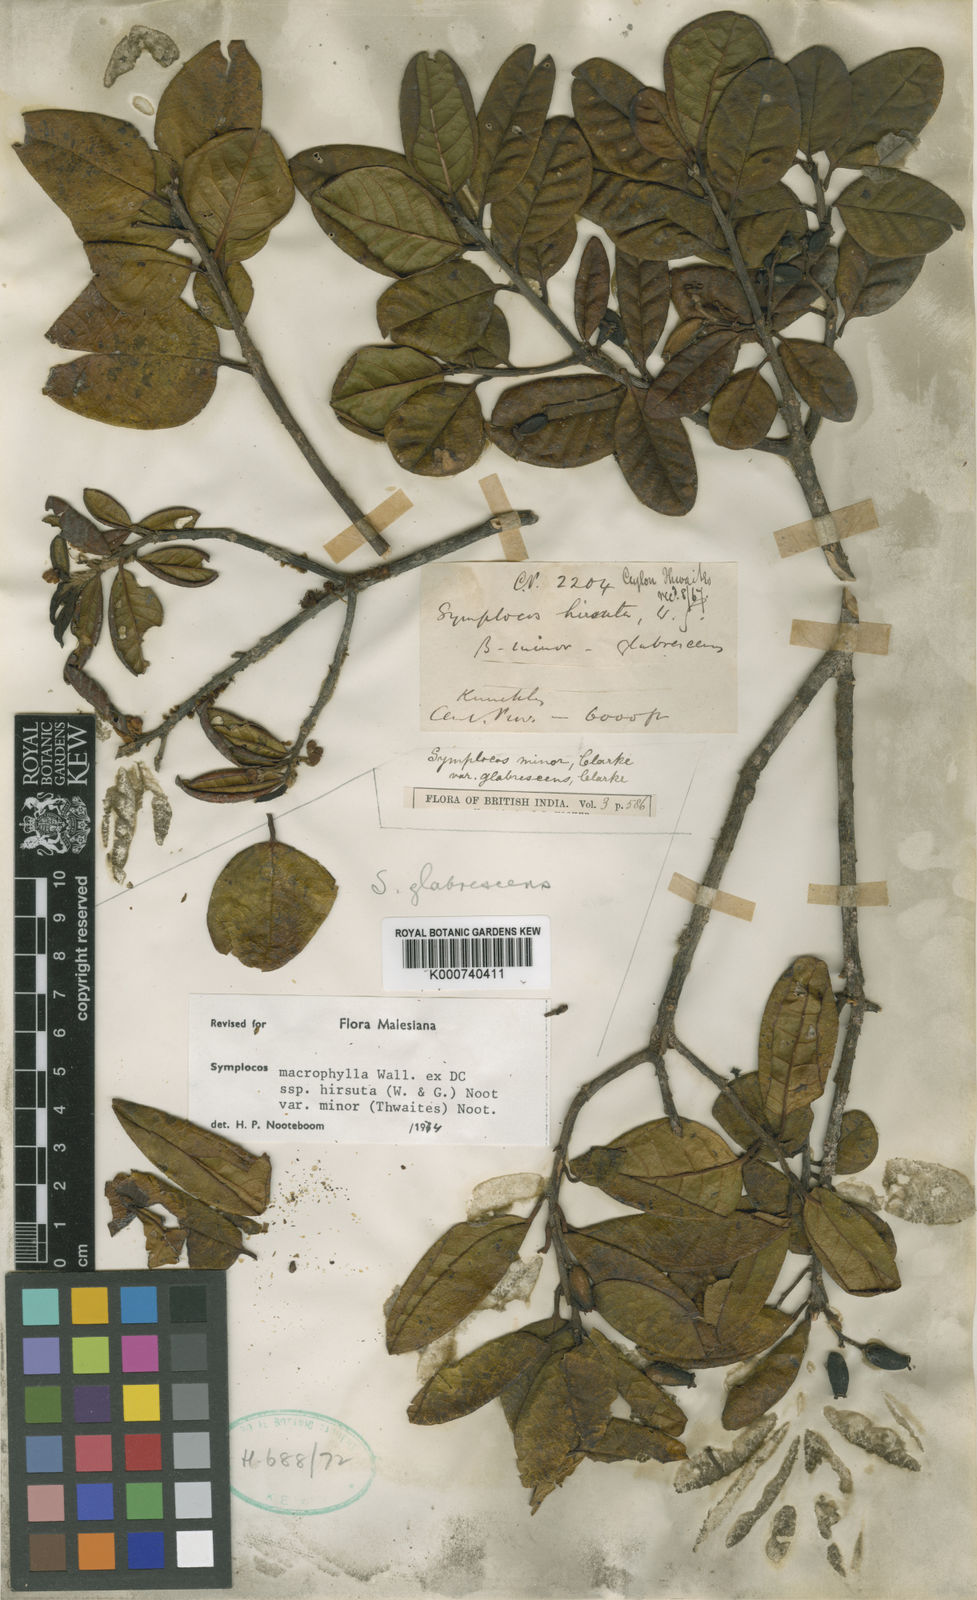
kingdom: Plantae
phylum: Tracheophyta
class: Magnoliopsida
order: Ericales
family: Symplocaceae
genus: Symplocos
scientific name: Symplocos arbutifolia
